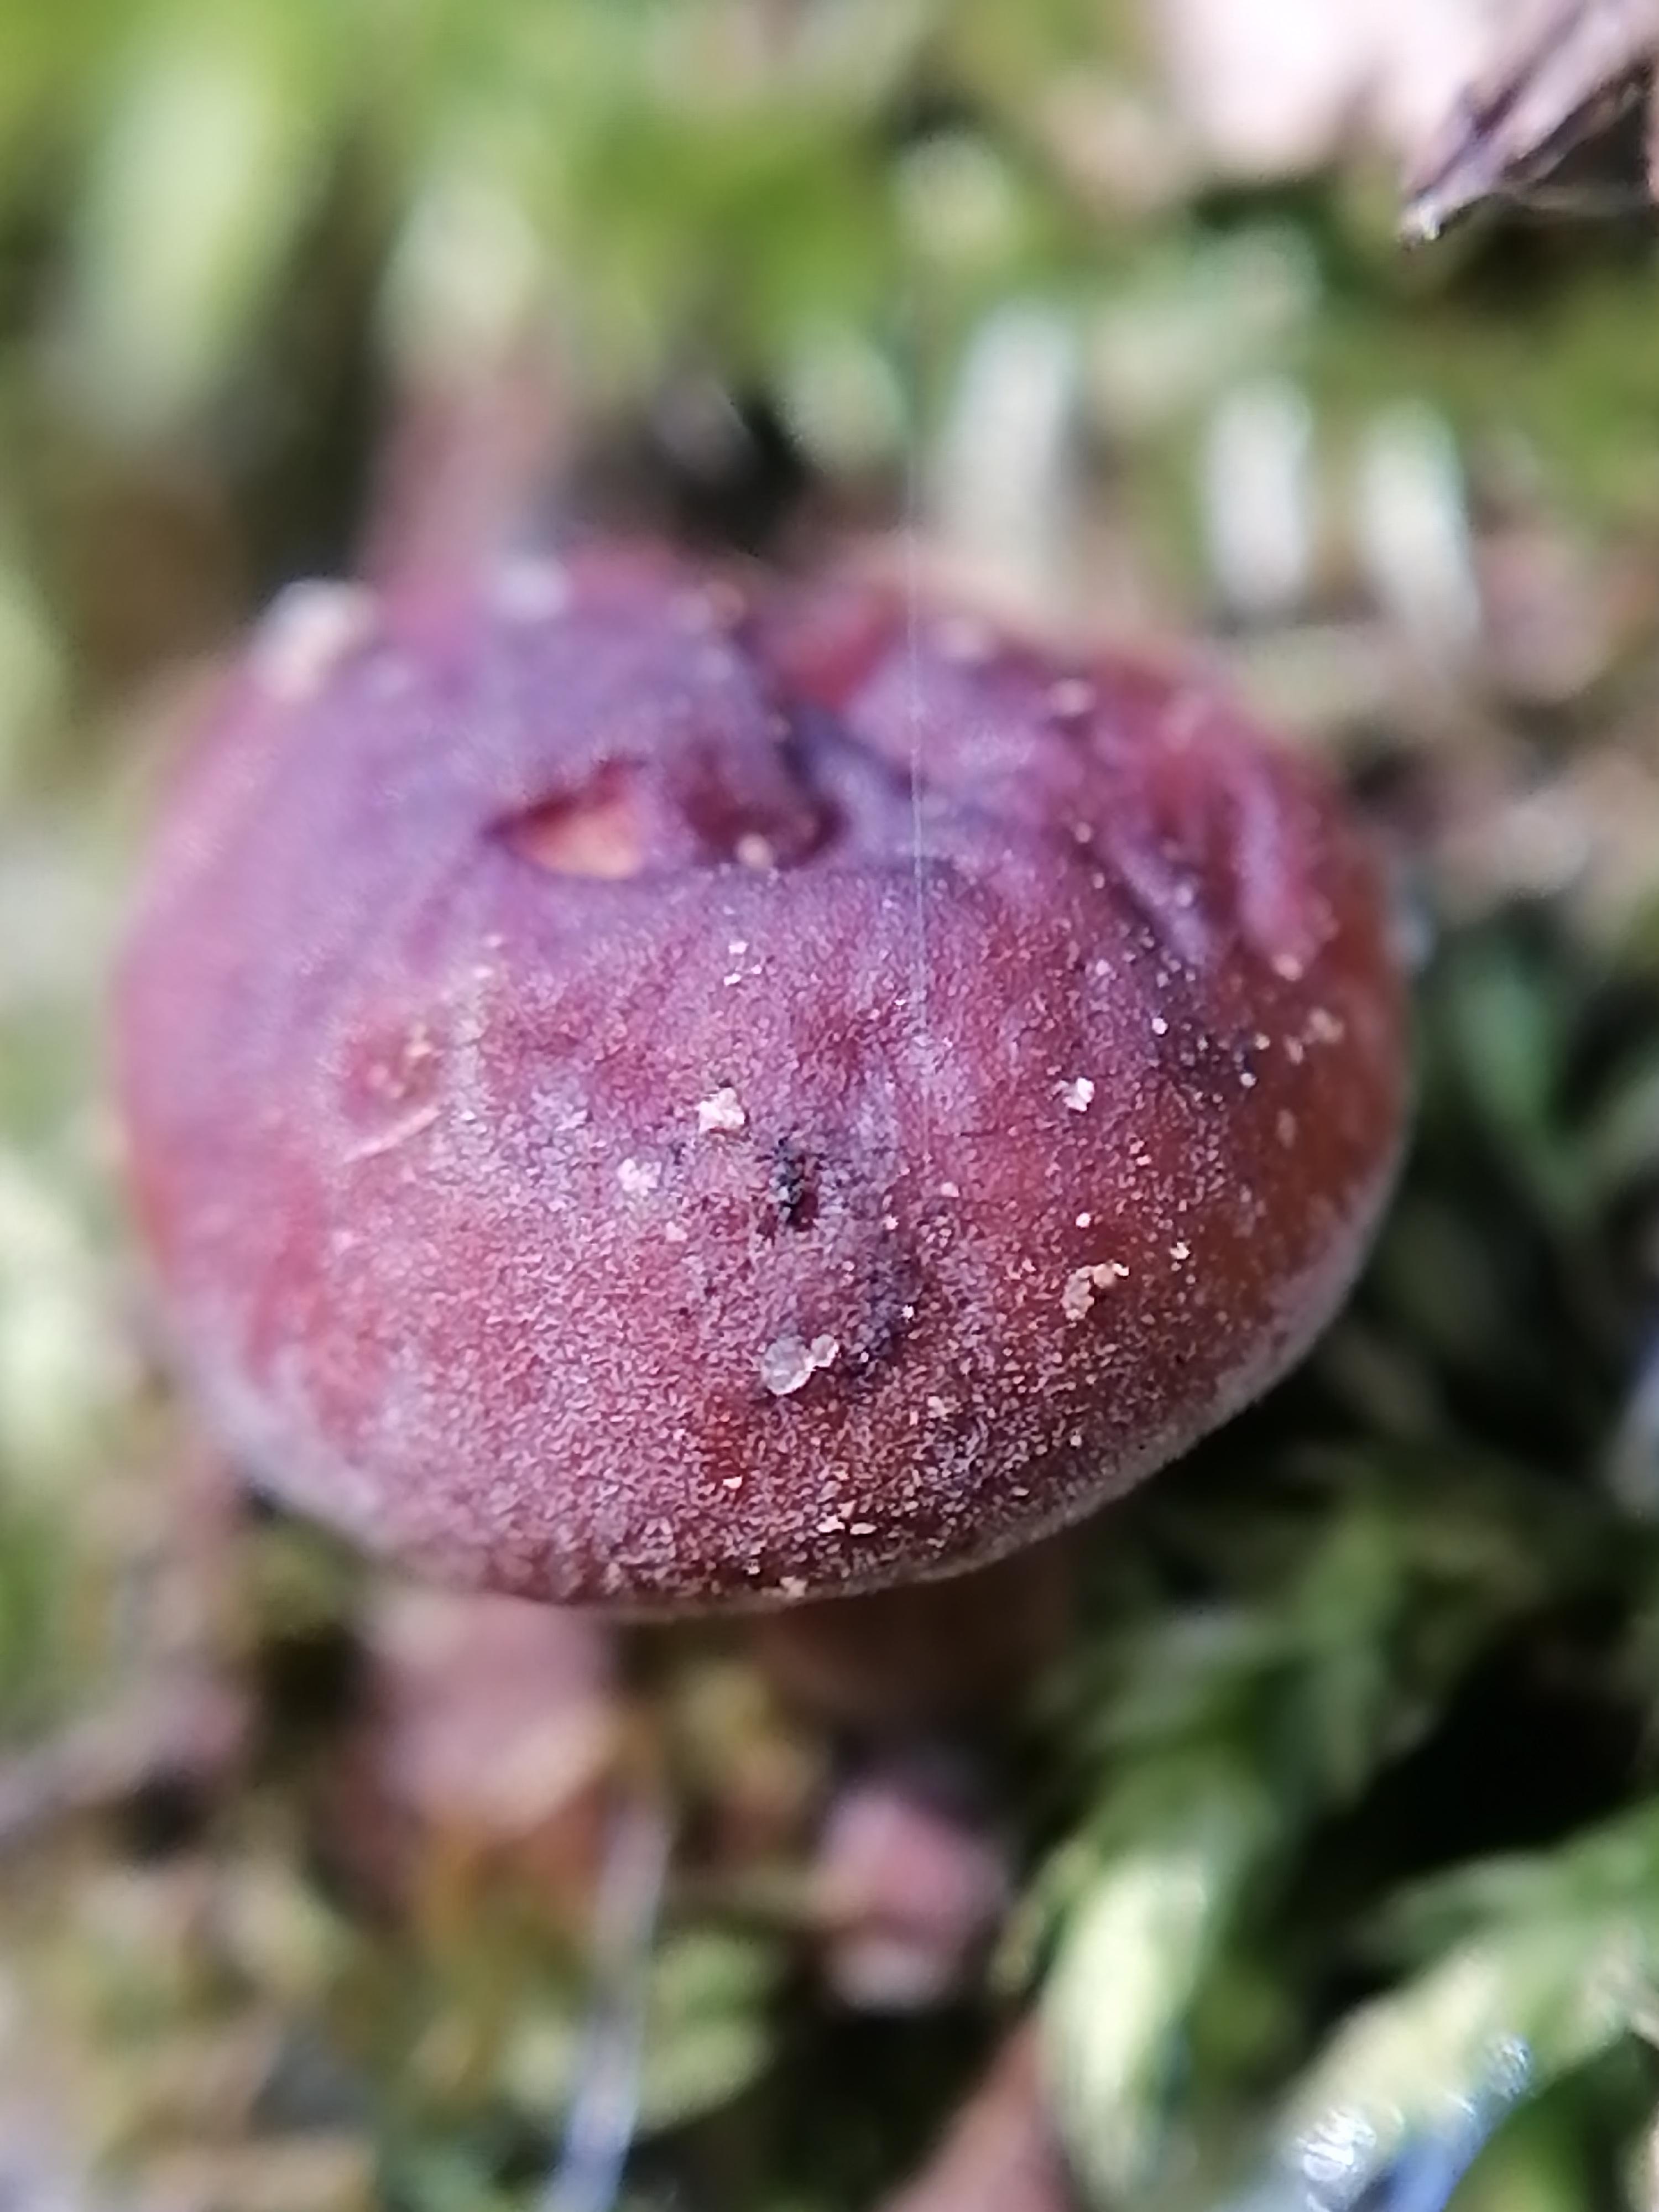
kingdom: Fungi
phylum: Basidiomycota
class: Agaricomycetes
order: Agaricales
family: Physalacriaceae
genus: Flammulina
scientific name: Flammulina velutipes
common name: gul fløjlsfod
